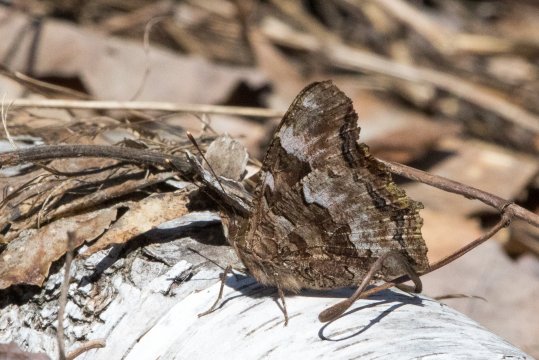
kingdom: Animalia
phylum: Arthropoda
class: Insecta
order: Lepidoptera
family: Nymphalidae
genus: Polygonia
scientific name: Polygonia vaualbum
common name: Compton Tortoiseshell
